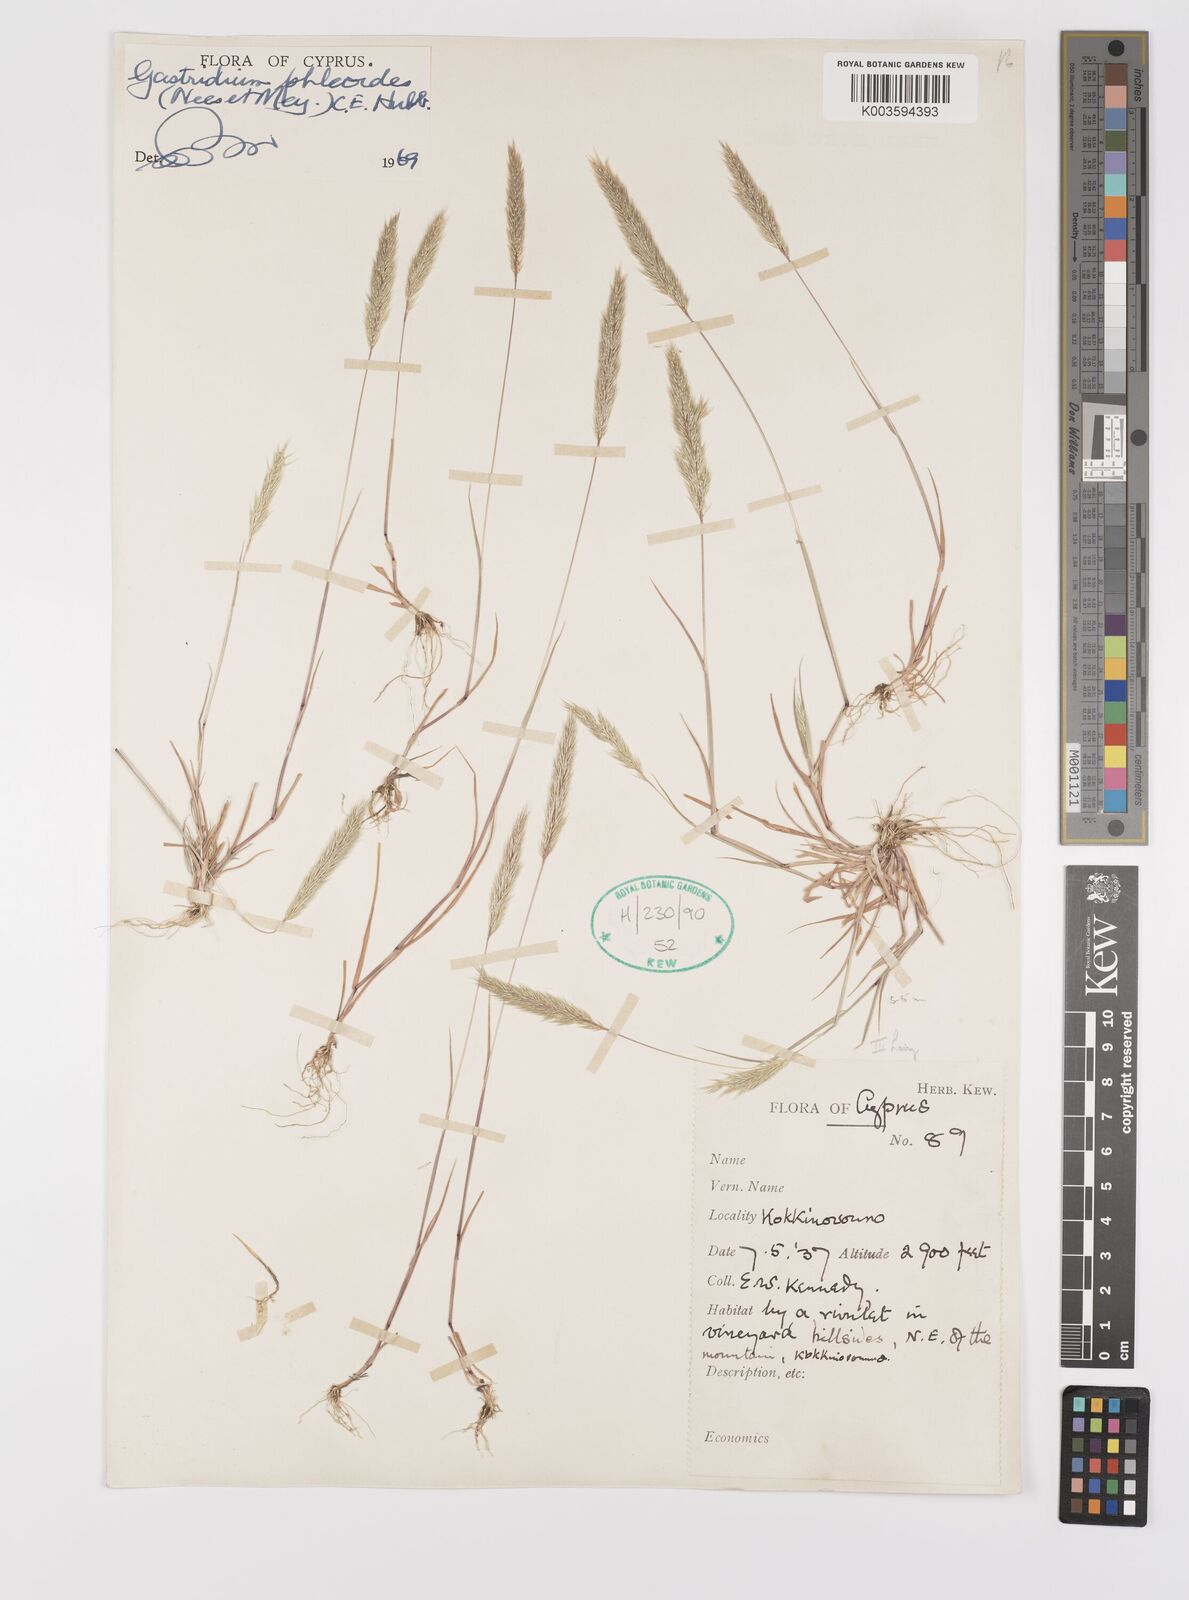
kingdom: Plantae
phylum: Tracheophyta
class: Liliopsida
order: Poales
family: Poaceae
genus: Gastridium
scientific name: Gastridium phleoides
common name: Nit grass
